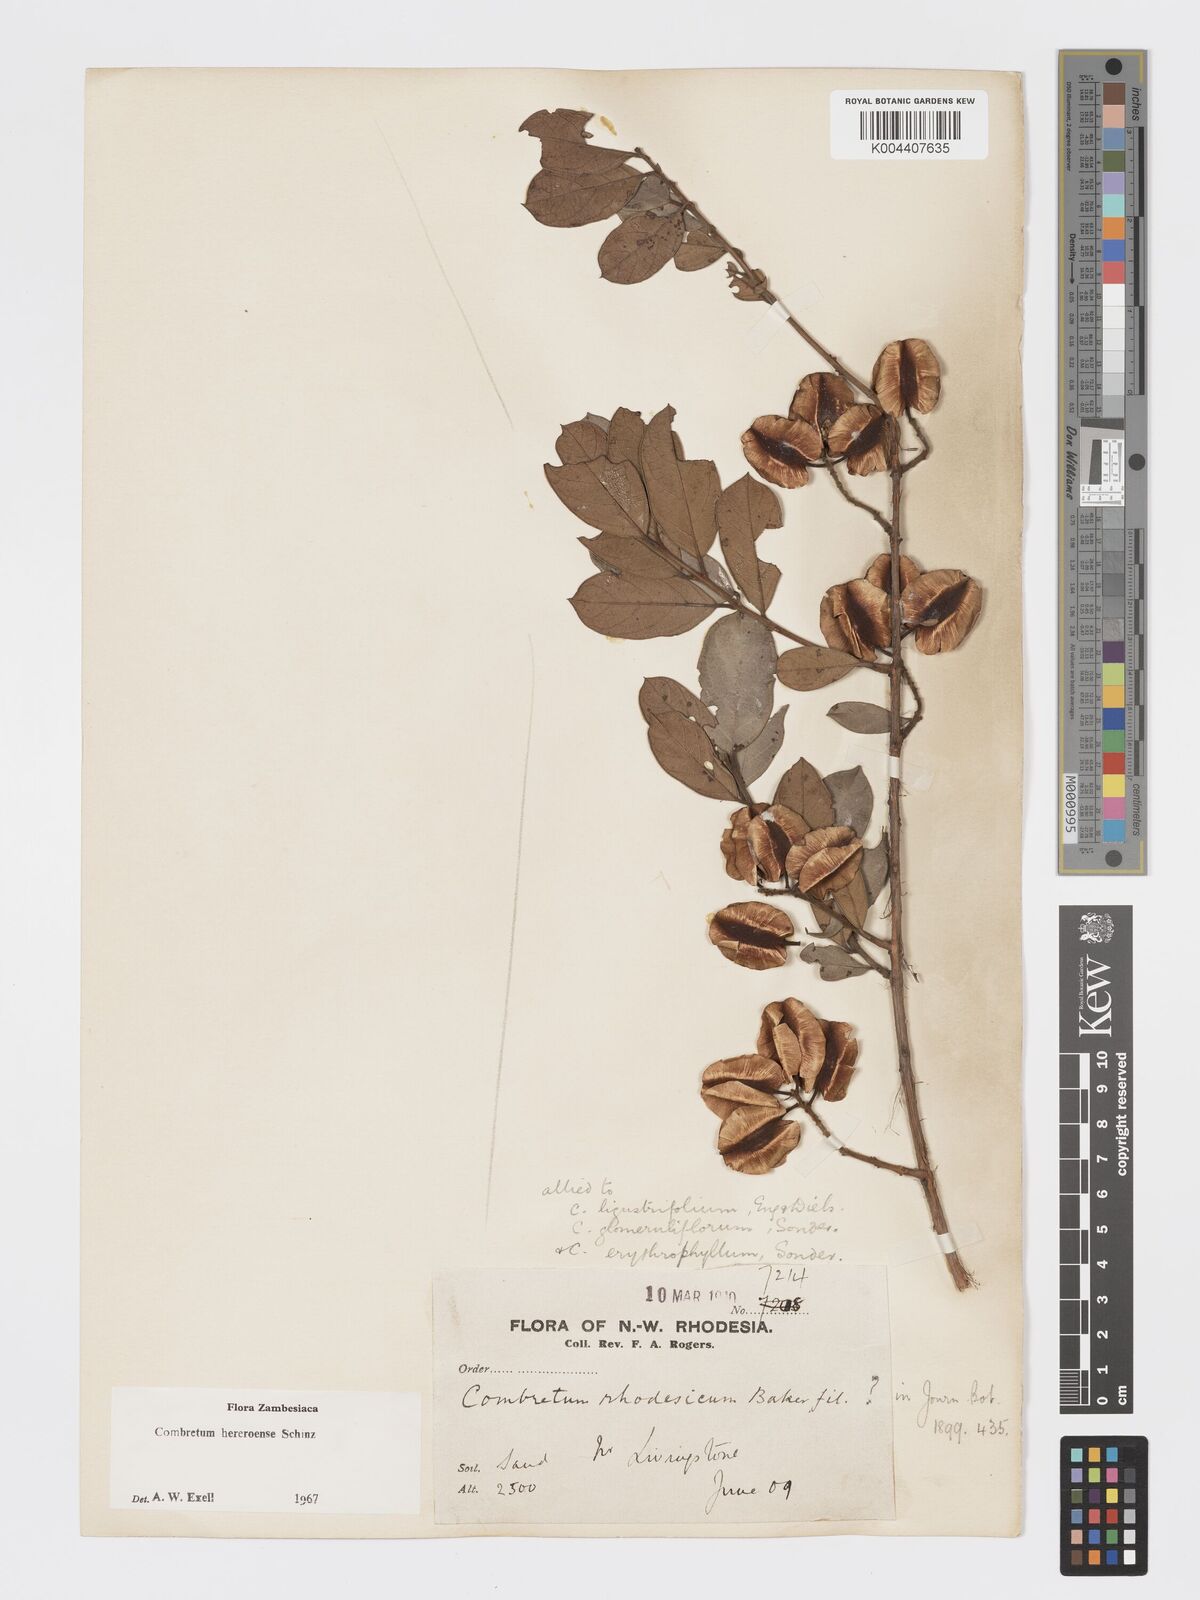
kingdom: Plantae
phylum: Tracheophyta
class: Magnoliopsida
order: Myrtales
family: Combretaceae
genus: Combretum
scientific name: Combretum hereroense
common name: Russet bushwillow
